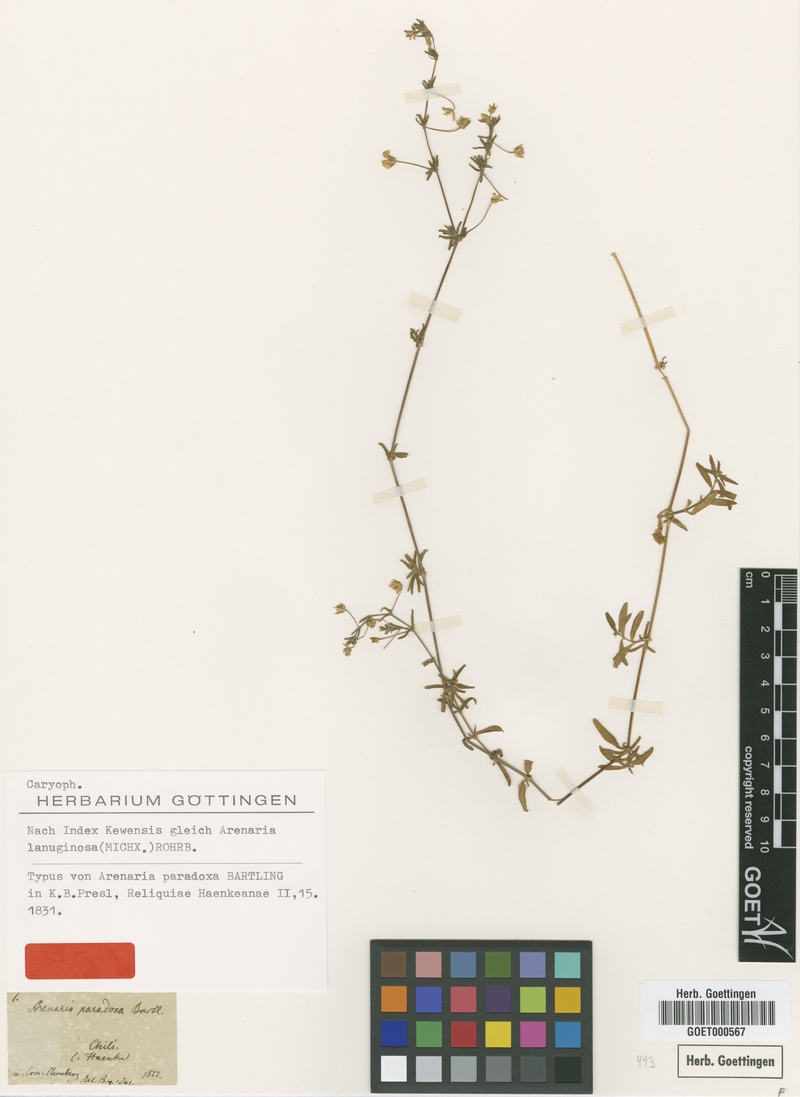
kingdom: Plantae
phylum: Tracheophyta
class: Magnoliopsida
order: Caryophyllales
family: Caryophyllaceae
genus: Arenaria
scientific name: Arenaria lanuginosa
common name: Spread sandwort
